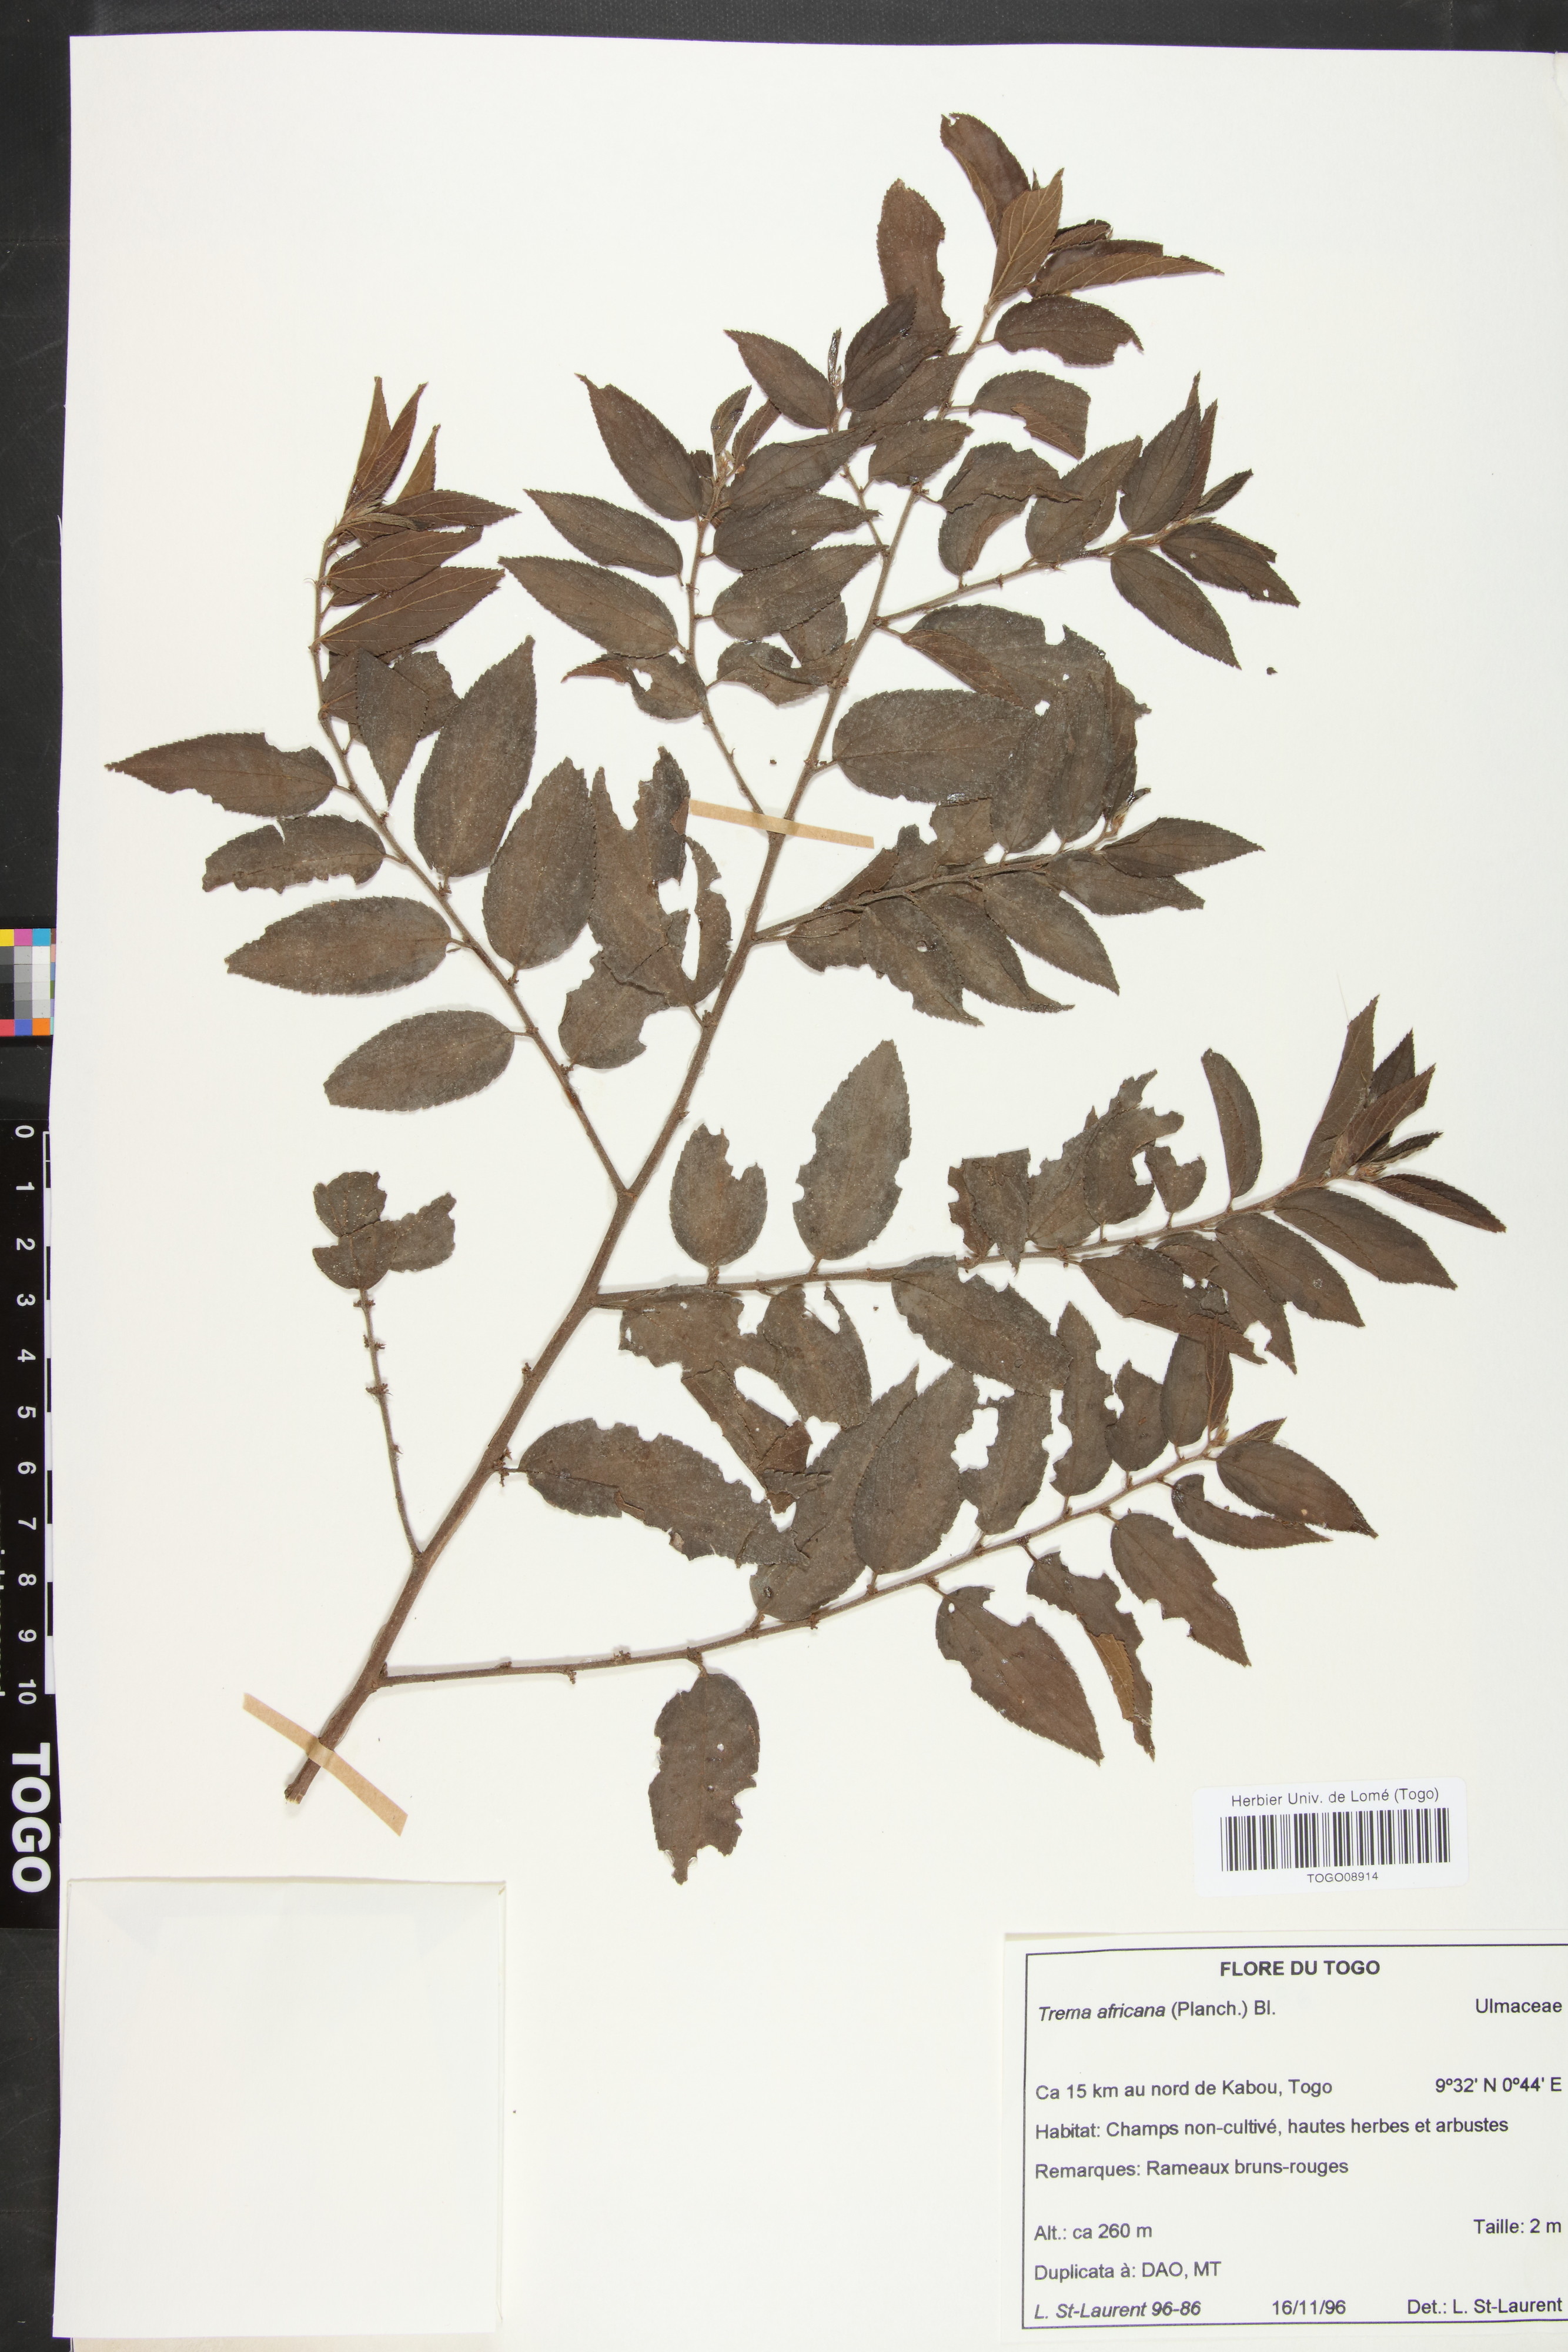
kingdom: Plantae
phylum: Tracheophyta
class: Magnoliopsida
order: Rosales
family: Cannabaceae
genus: Trema
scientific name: Trema orientale
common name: Indian charcoal tree
